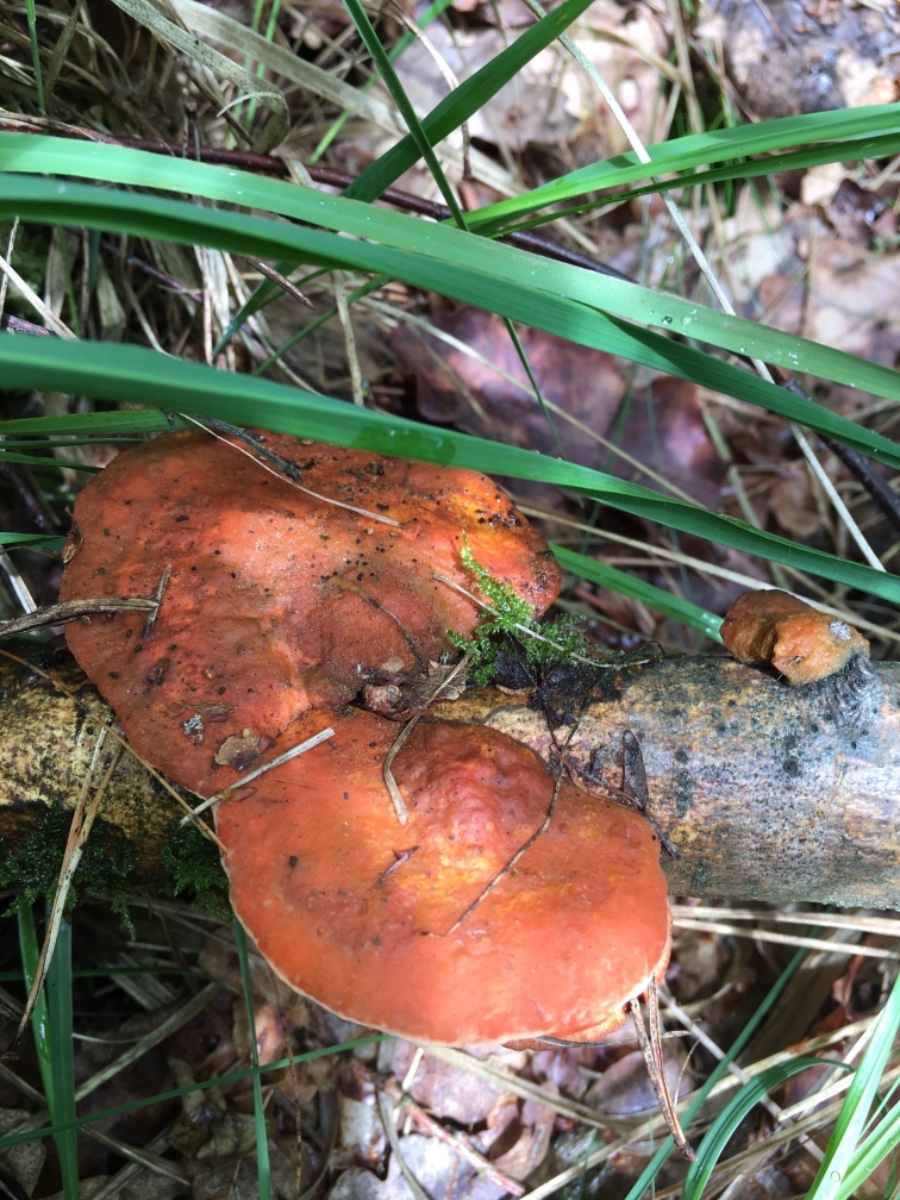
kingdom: Fungi
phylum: Basidiomycota
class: Agaricomycetes
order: Polyporales
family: Polyporaceae
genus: Trametes
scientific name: Trametes cinnabarina
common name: cinnoberporesvamp
